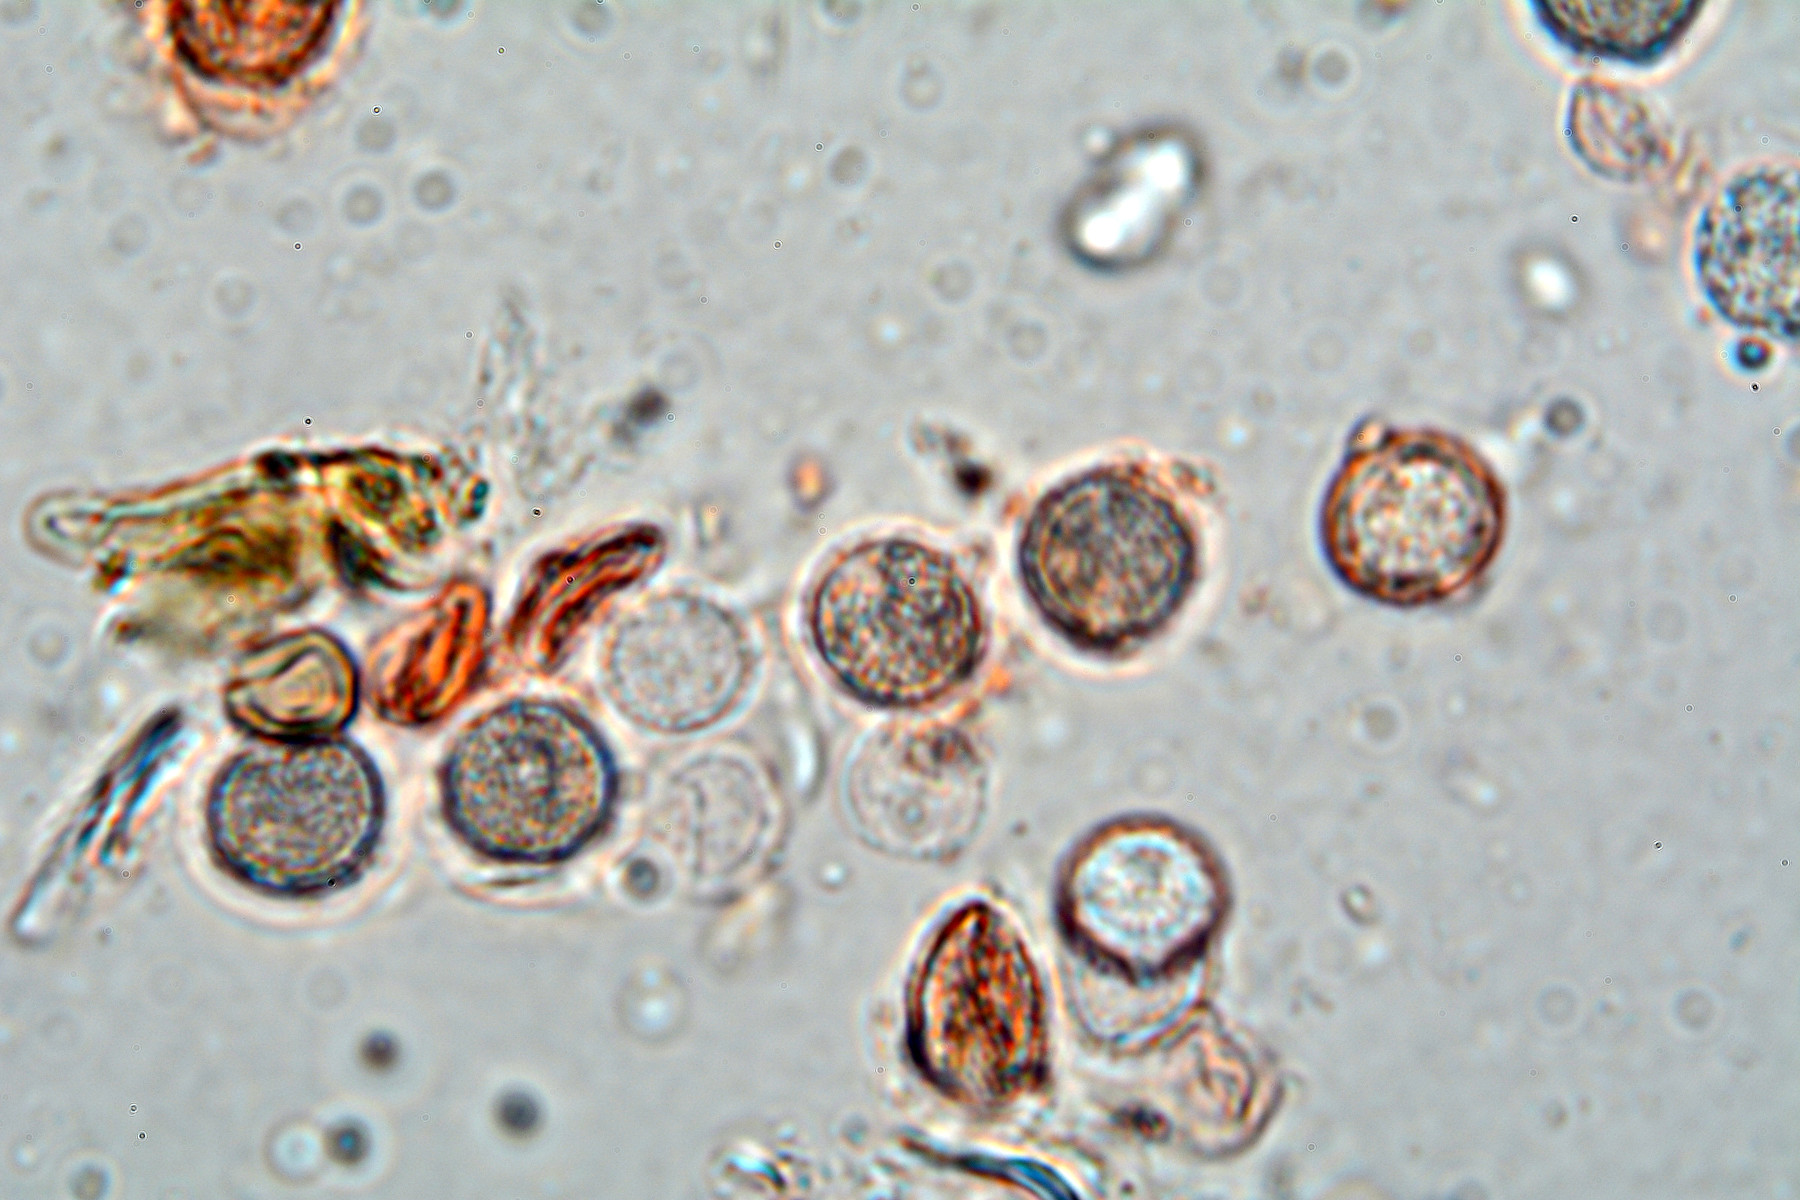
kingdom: Fungi
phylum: Basidiomycota
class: Agaricomycetes
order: Auriculariales
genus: Basidiodendron
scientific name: Basidiodendron cinerellum
